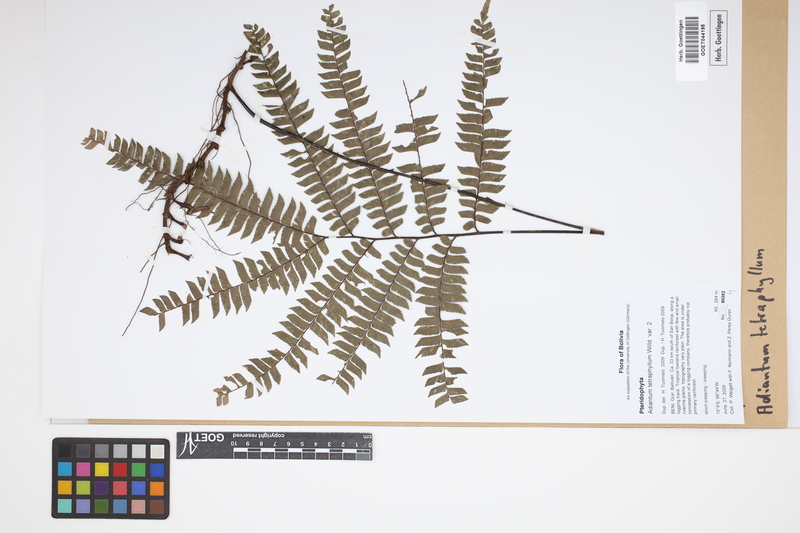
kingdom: Plantae
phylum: Tracheophyta
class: Polypodiopsida
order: Polypodiales
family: Pteridaceae
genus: Adiantum
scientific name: Adiantum tetraphyllum
